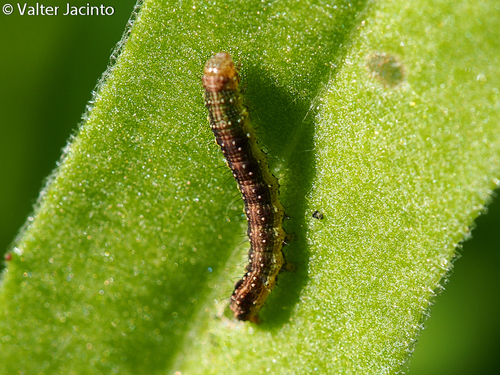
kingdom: Animalia
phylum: Arthropoda
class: Insecta
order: Lepidoptera
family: Noctuidae
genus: Helicoverpa
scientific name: Helicoverpa armigera
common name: Cotton bollworm
